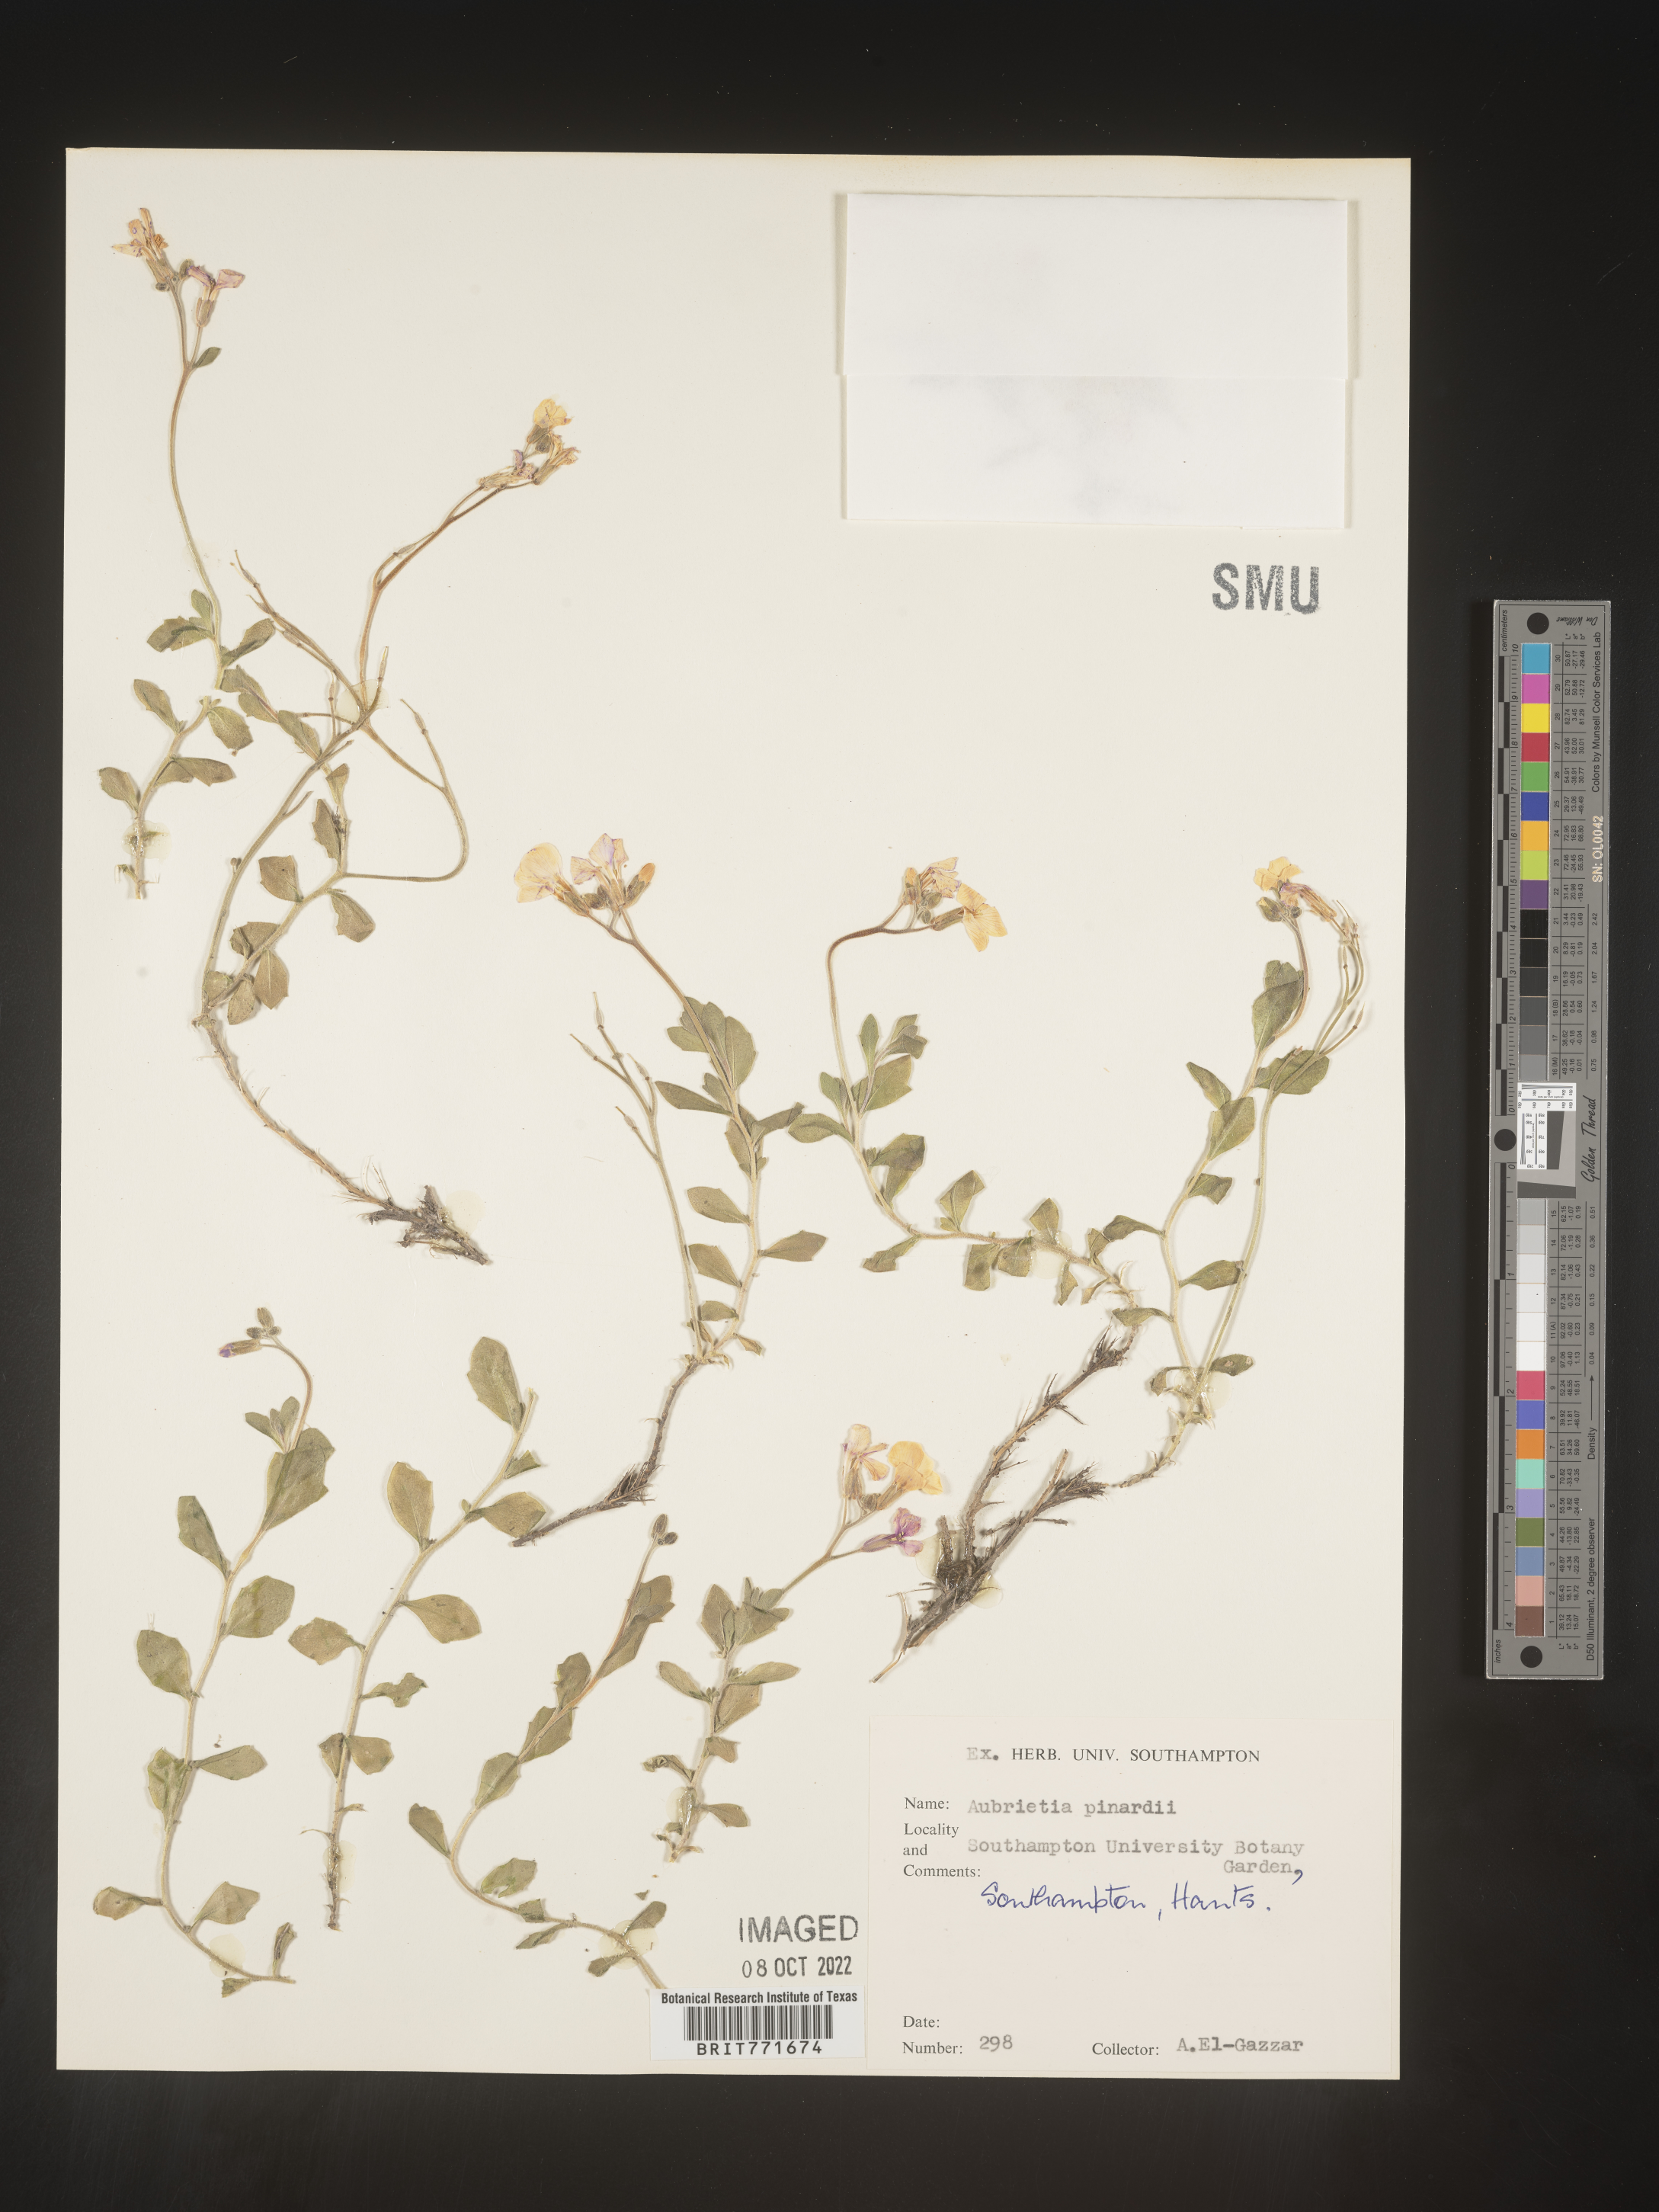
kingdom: Plantae
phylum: Tracheophyta
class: Magnoliopsida
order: Brassicales
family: Brassicaceae
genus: Aubrieta
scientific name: Aubrieta
